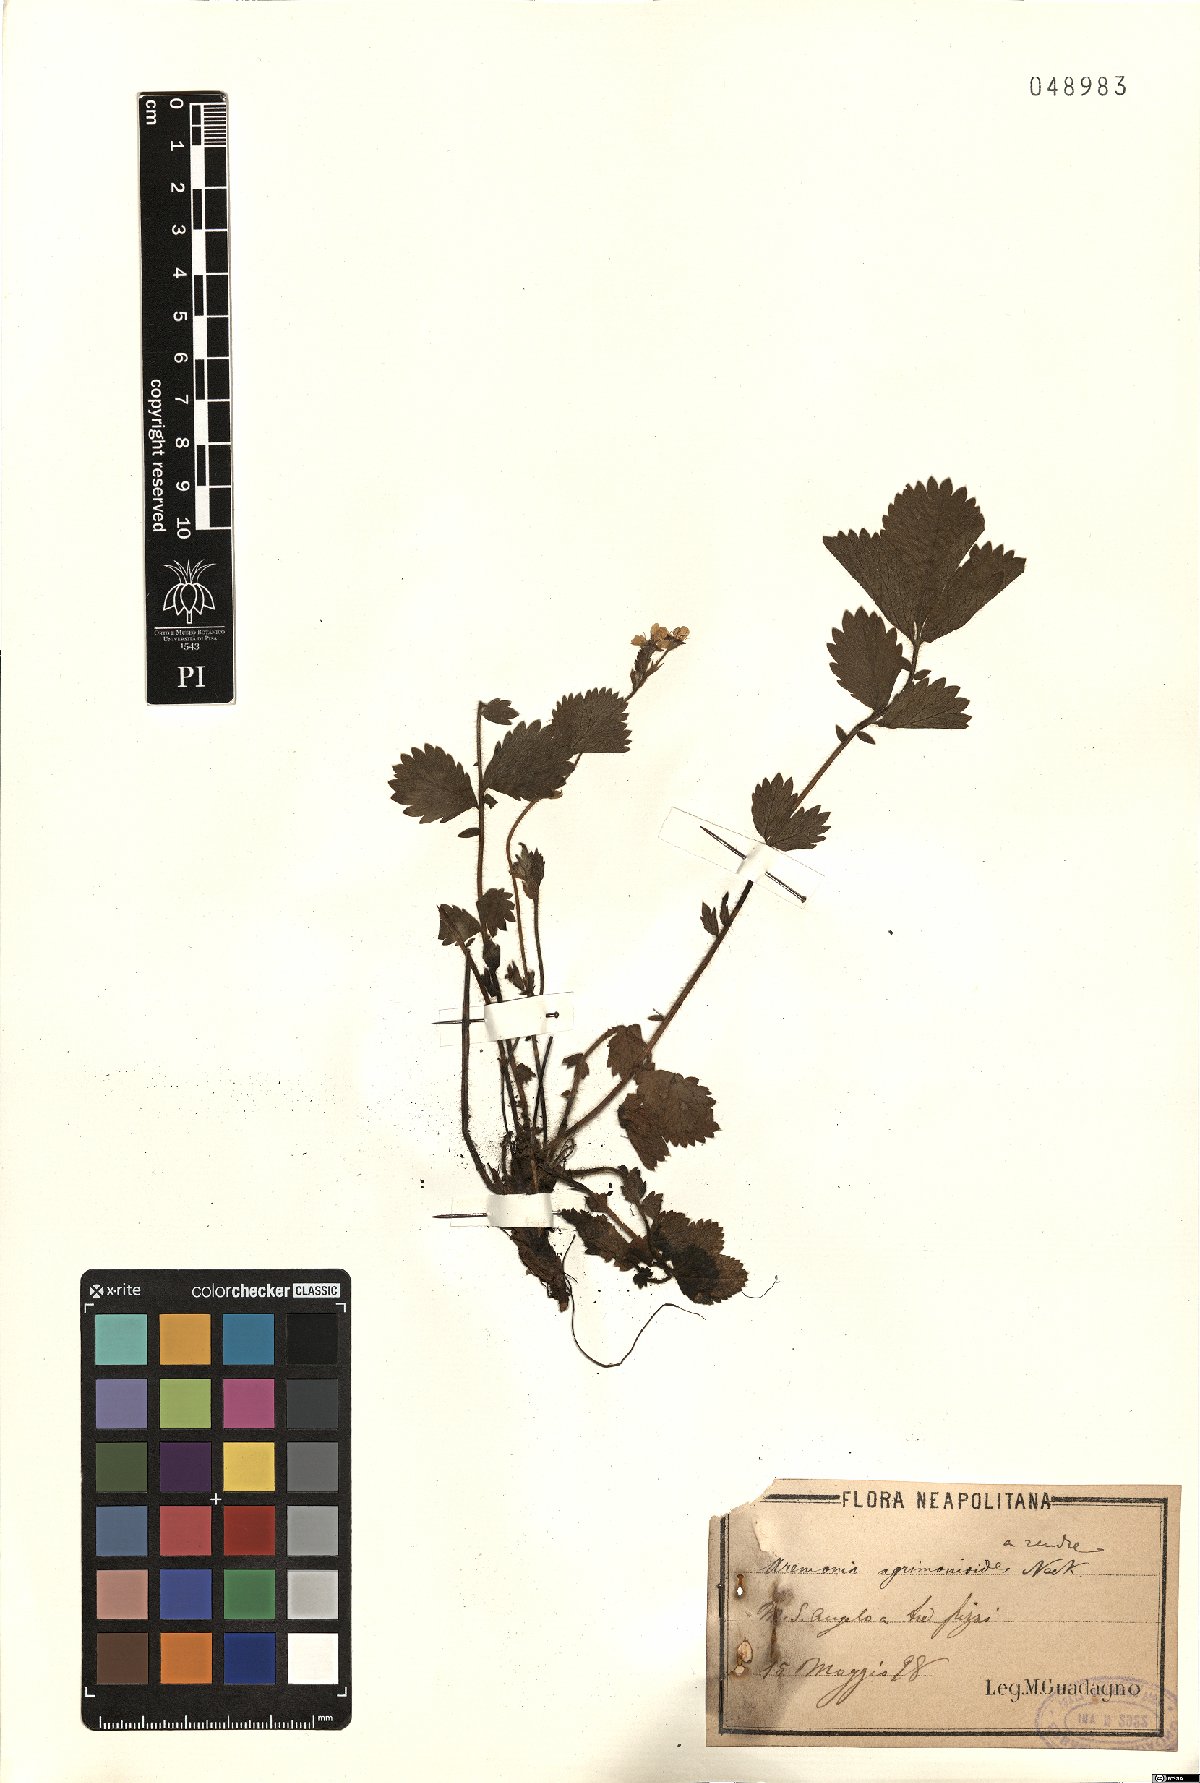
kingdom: Plantae
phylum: Tracheophyta
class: Magnoliopsida
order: Rosales
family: Rosaceae
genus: Aremonia
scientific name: Aremonia agrimonoides
